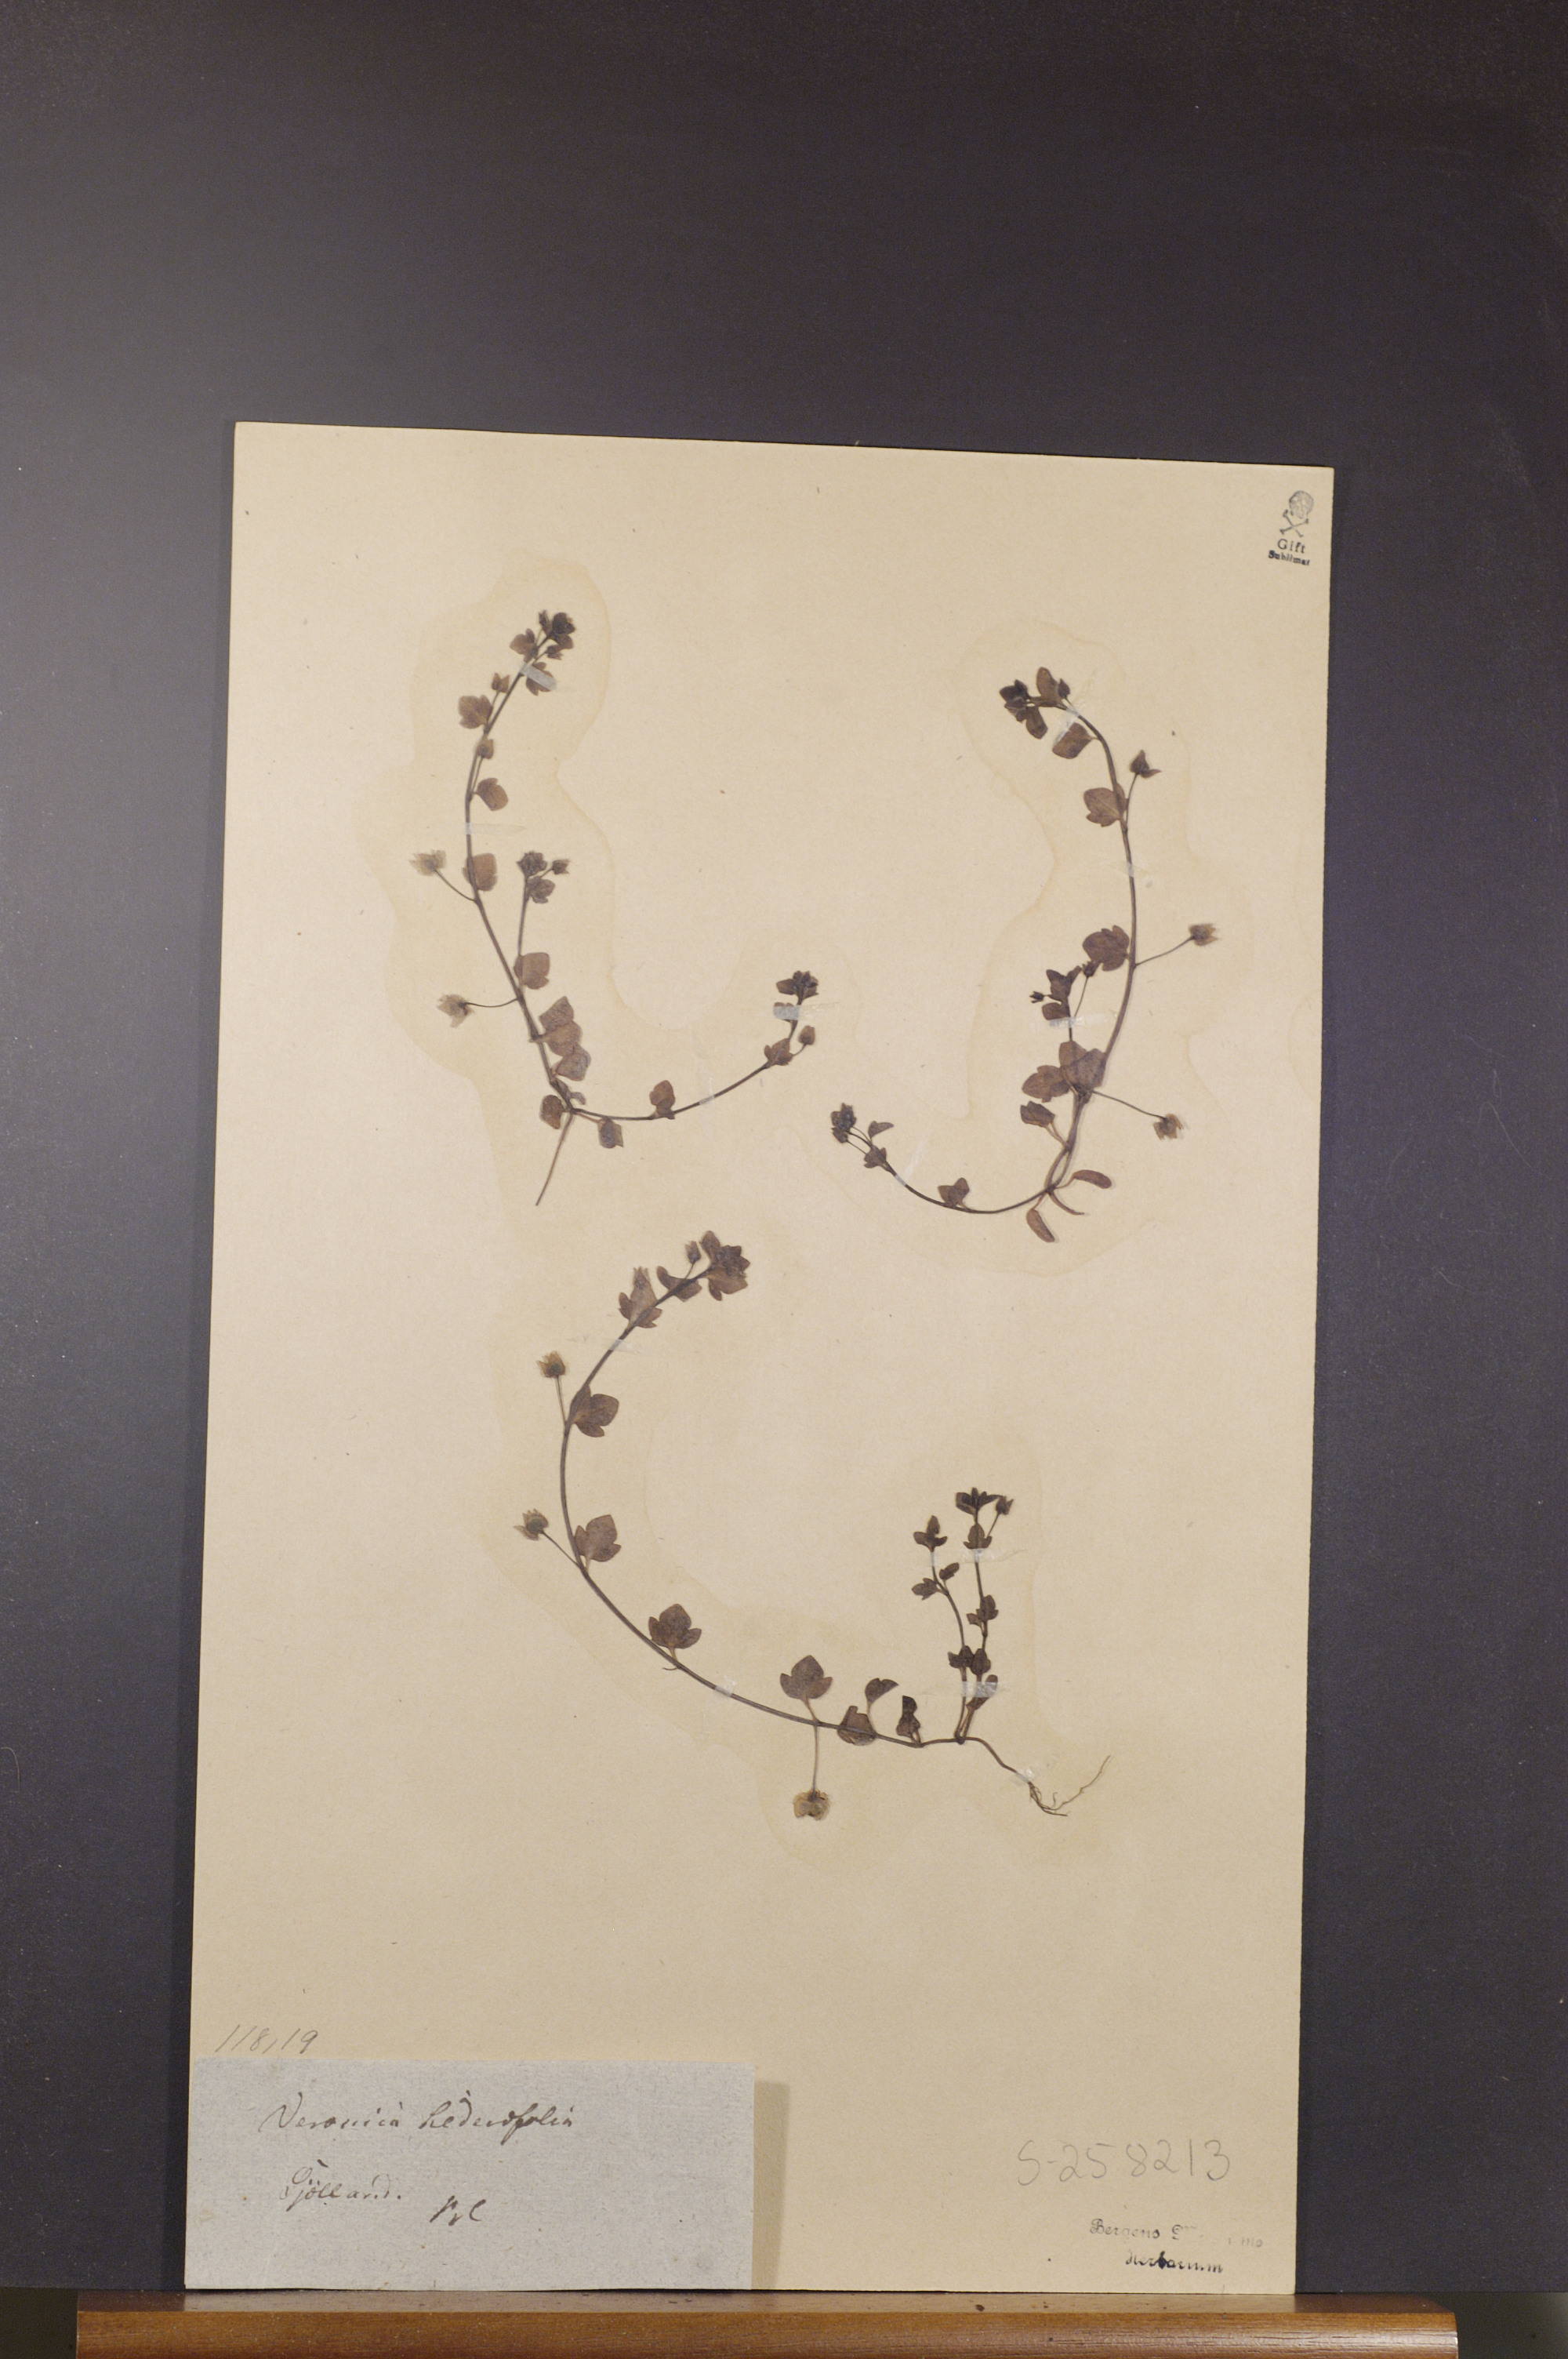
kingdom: Plantae
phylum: Tracheophyta
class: Magnoliopsida
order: Lamiales
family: Plantaginaceae
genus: Veronica
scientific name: Veronica hederifolia
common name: Ivy-leaved speedwell
